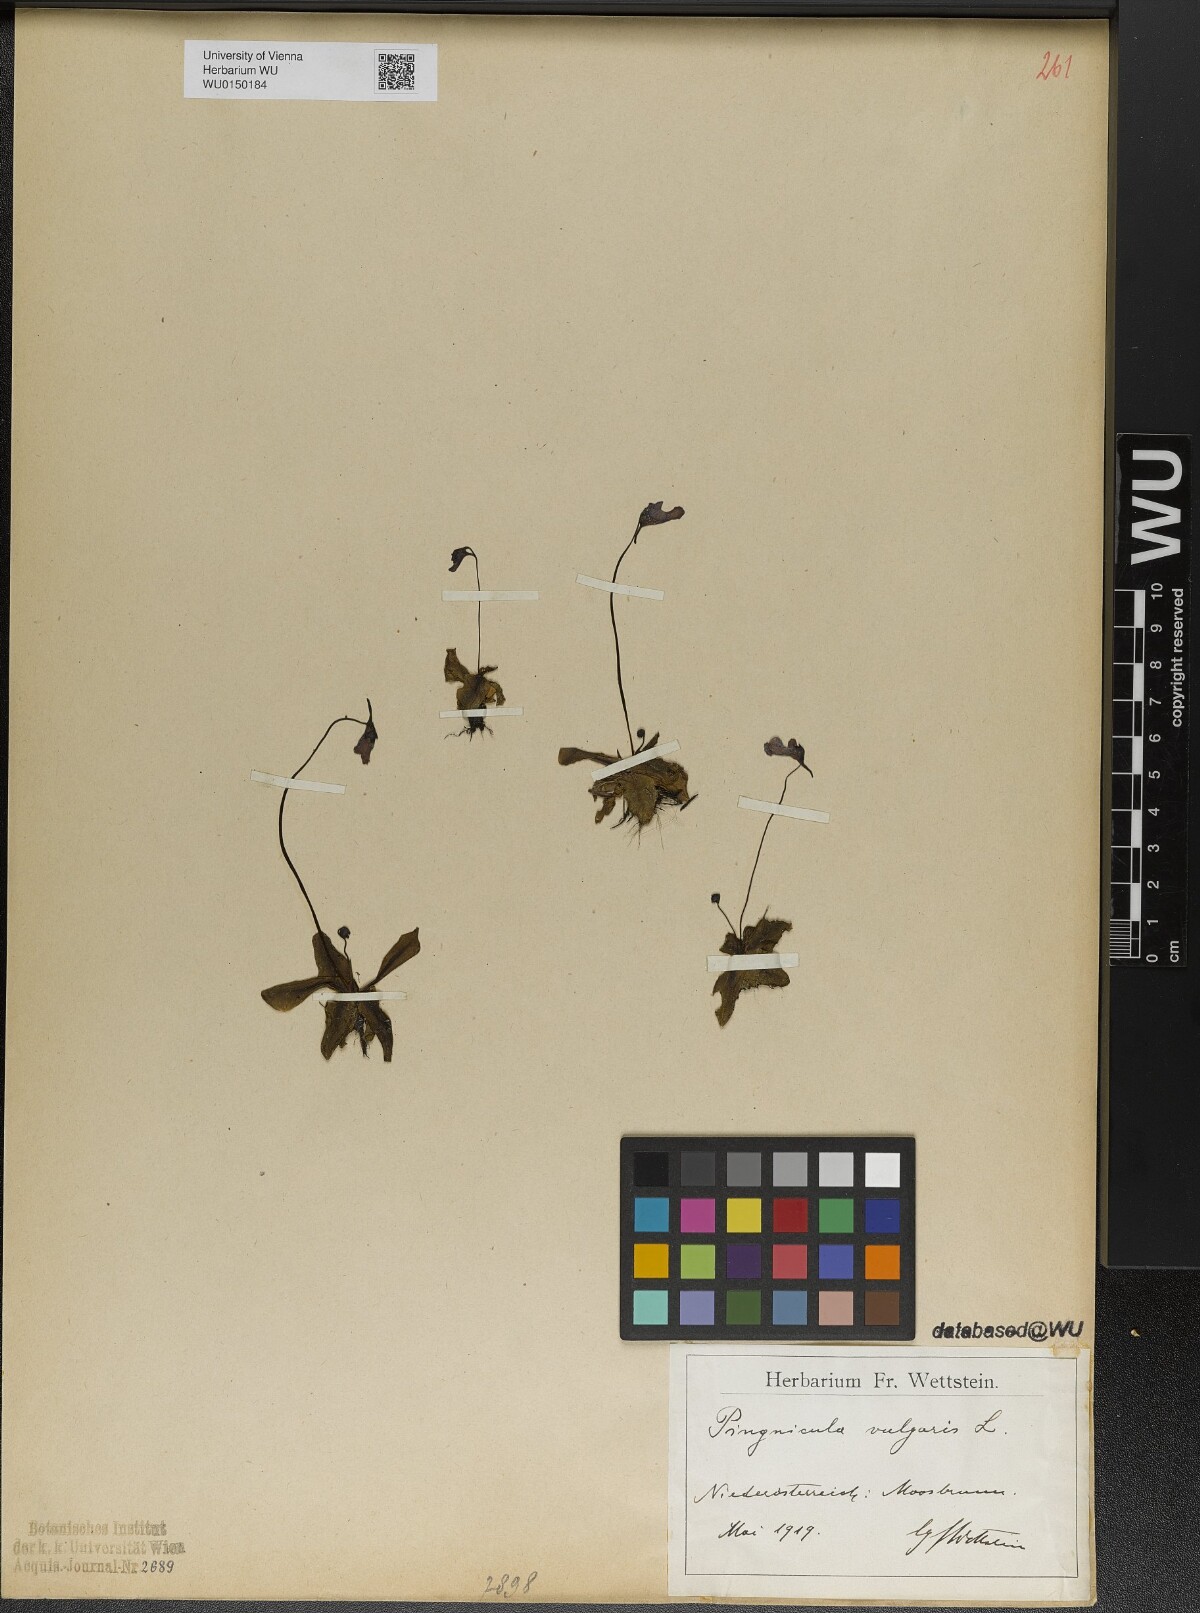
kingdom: Plantae
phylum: Tracheophyta
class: Magnoliopsida
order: Lamiales
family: Lentibulariaceae
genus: Pinguicula
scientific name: Pinguicula alpina
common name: Alpine butterwort
